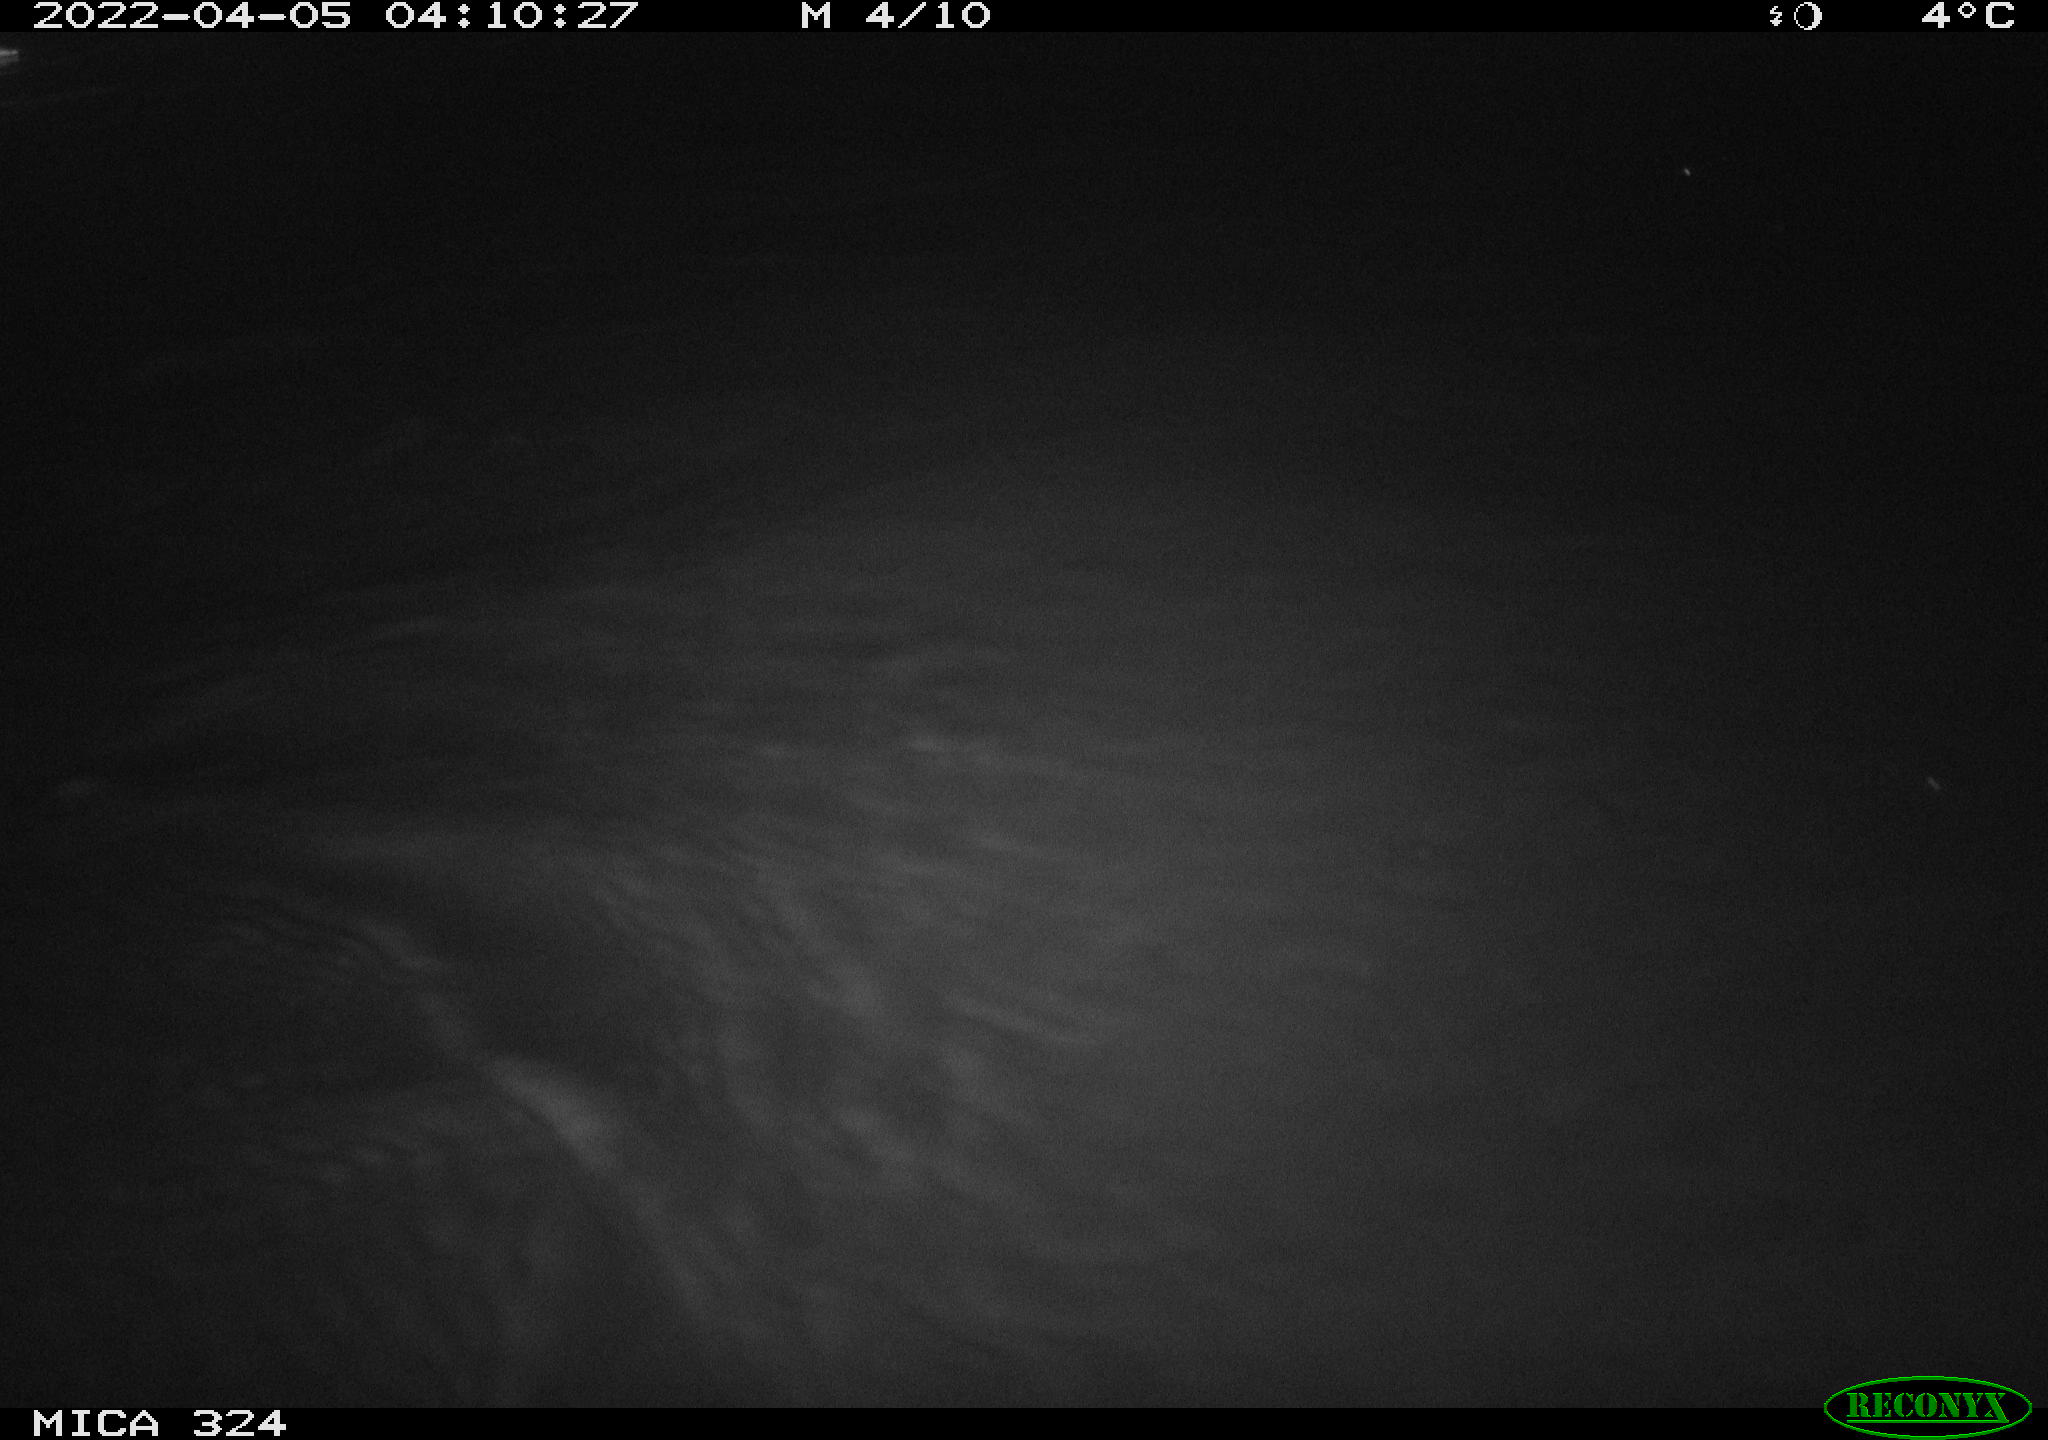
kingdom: Animalia
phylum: Chordata
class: Mammalia
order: Rodentia
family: Cricetidae
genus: Ondatra
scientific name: Ondatra zibethicus
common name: Muskrat
